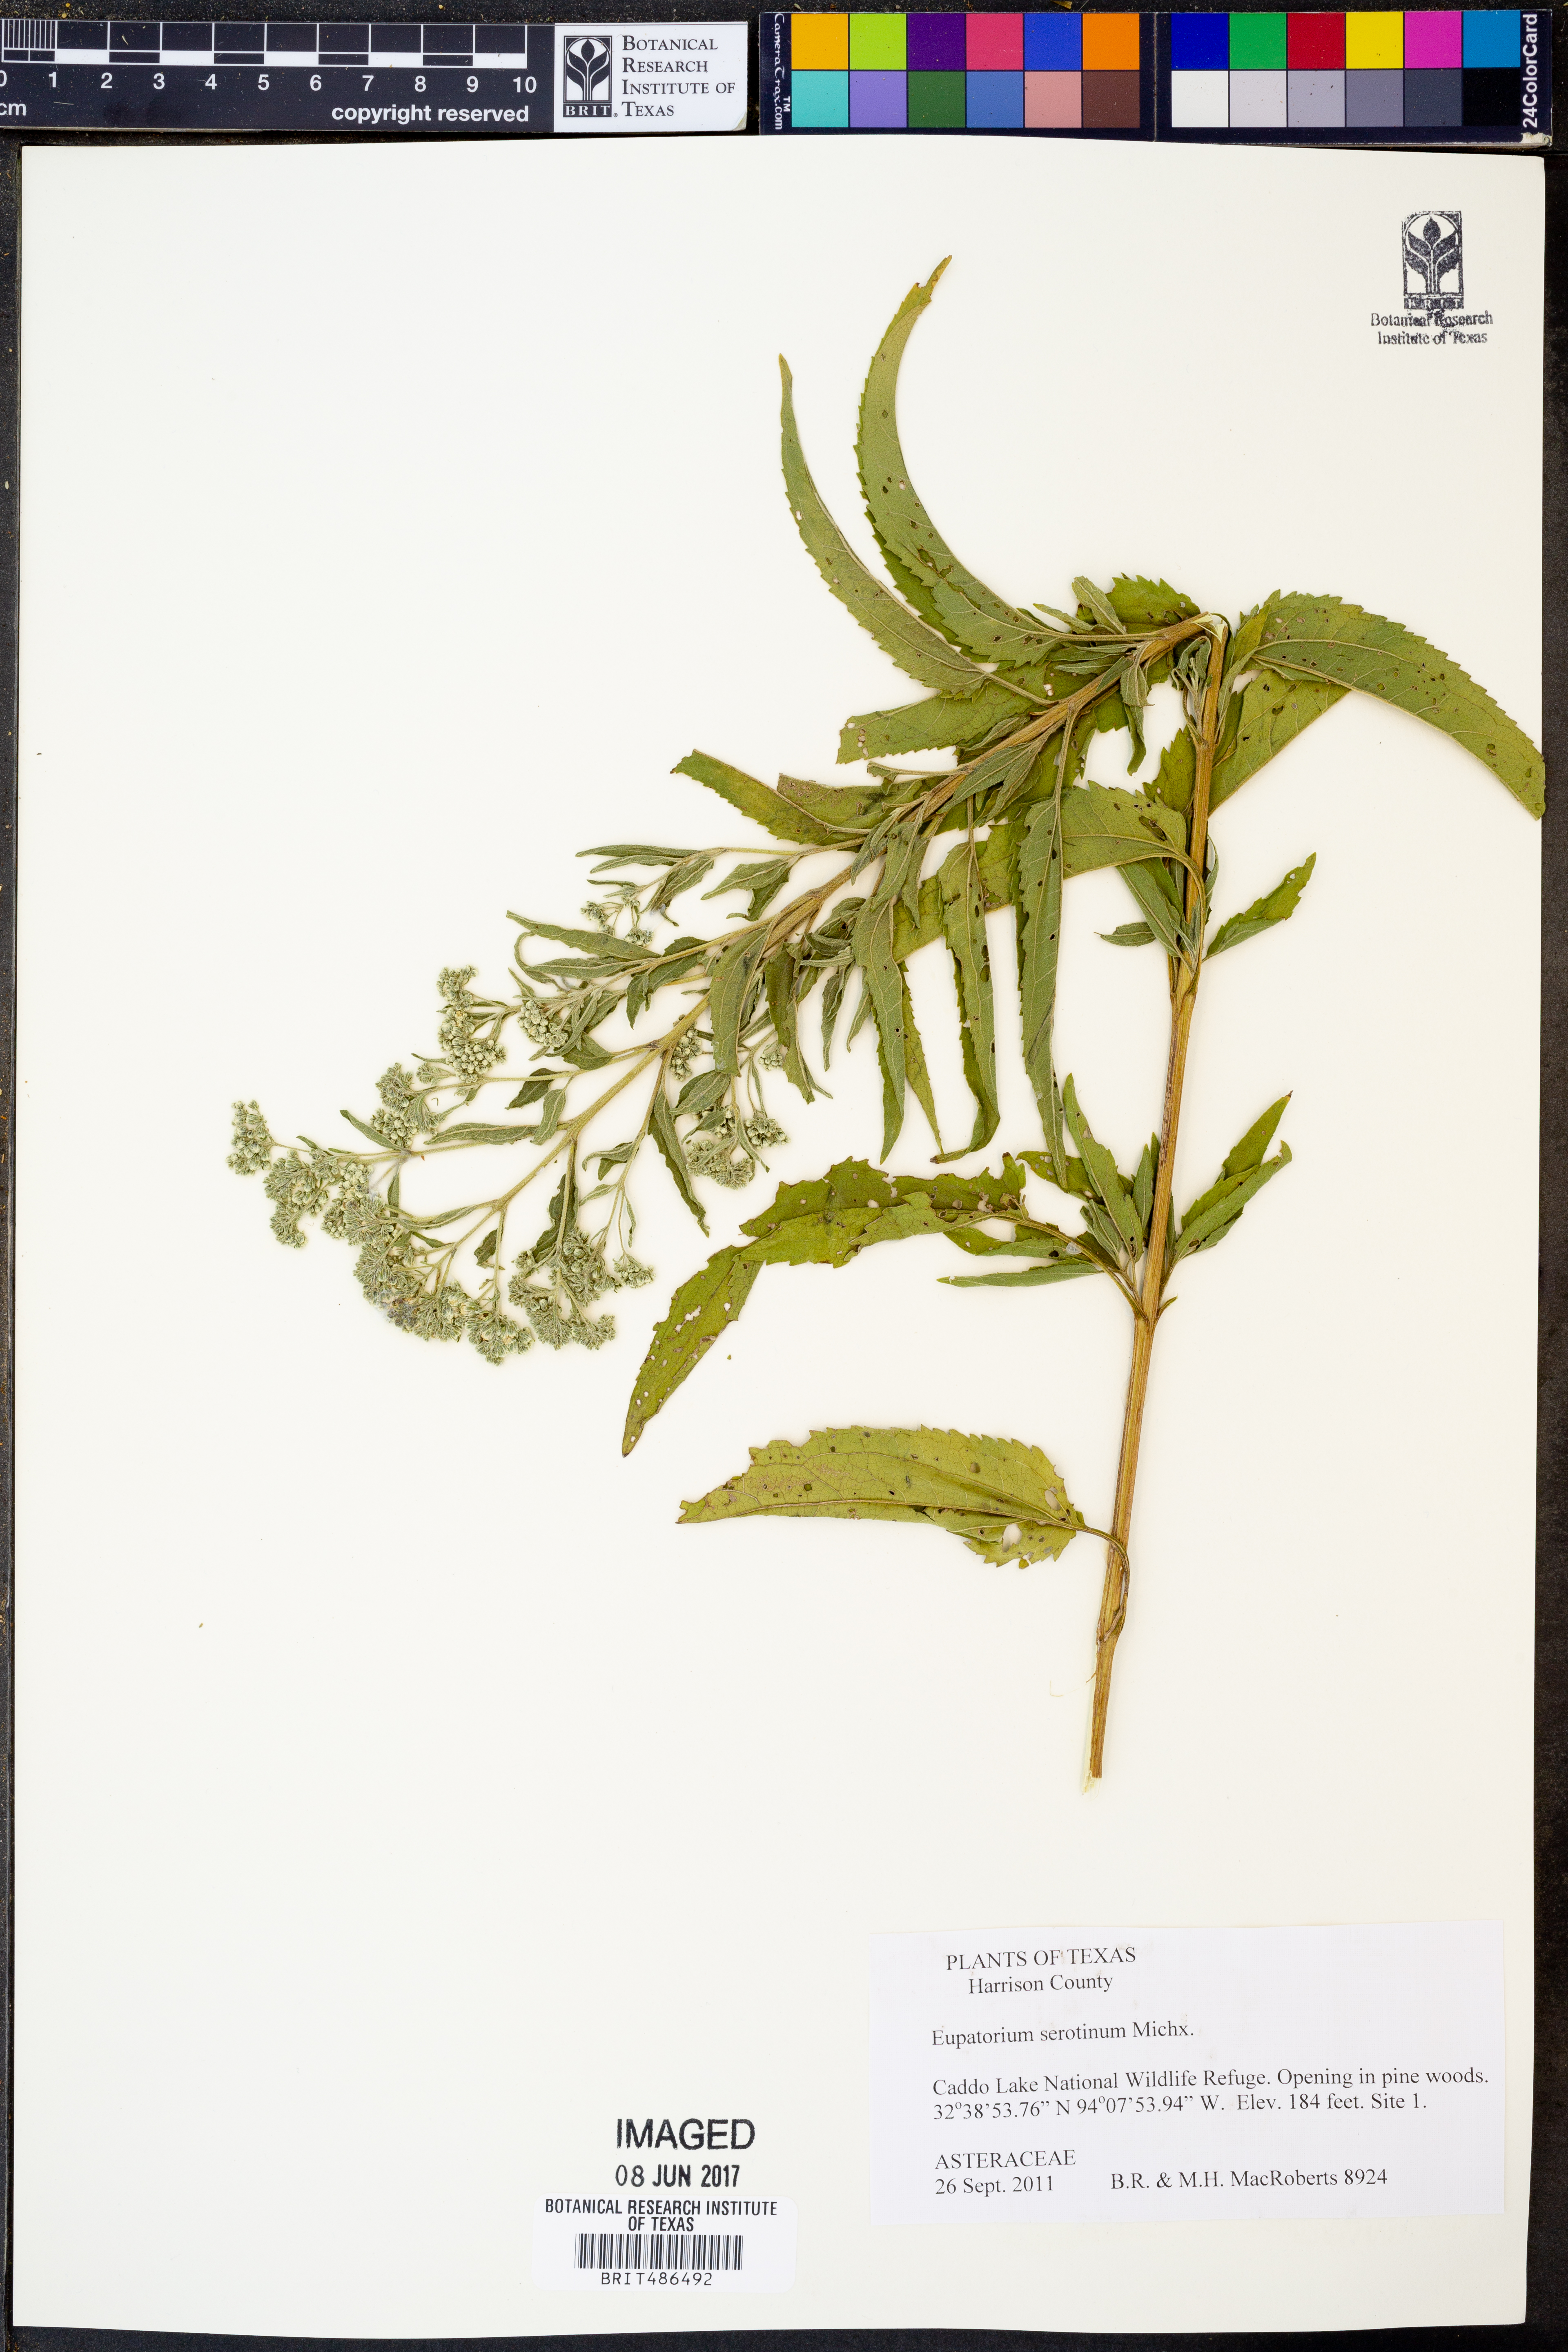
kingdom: Plantae
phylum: Tracheophyta
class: Magnoliopsida
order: Asterales
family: Asteraceae
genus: Eupatorium
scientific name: Eupatorium serotinum
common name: Late boneset
